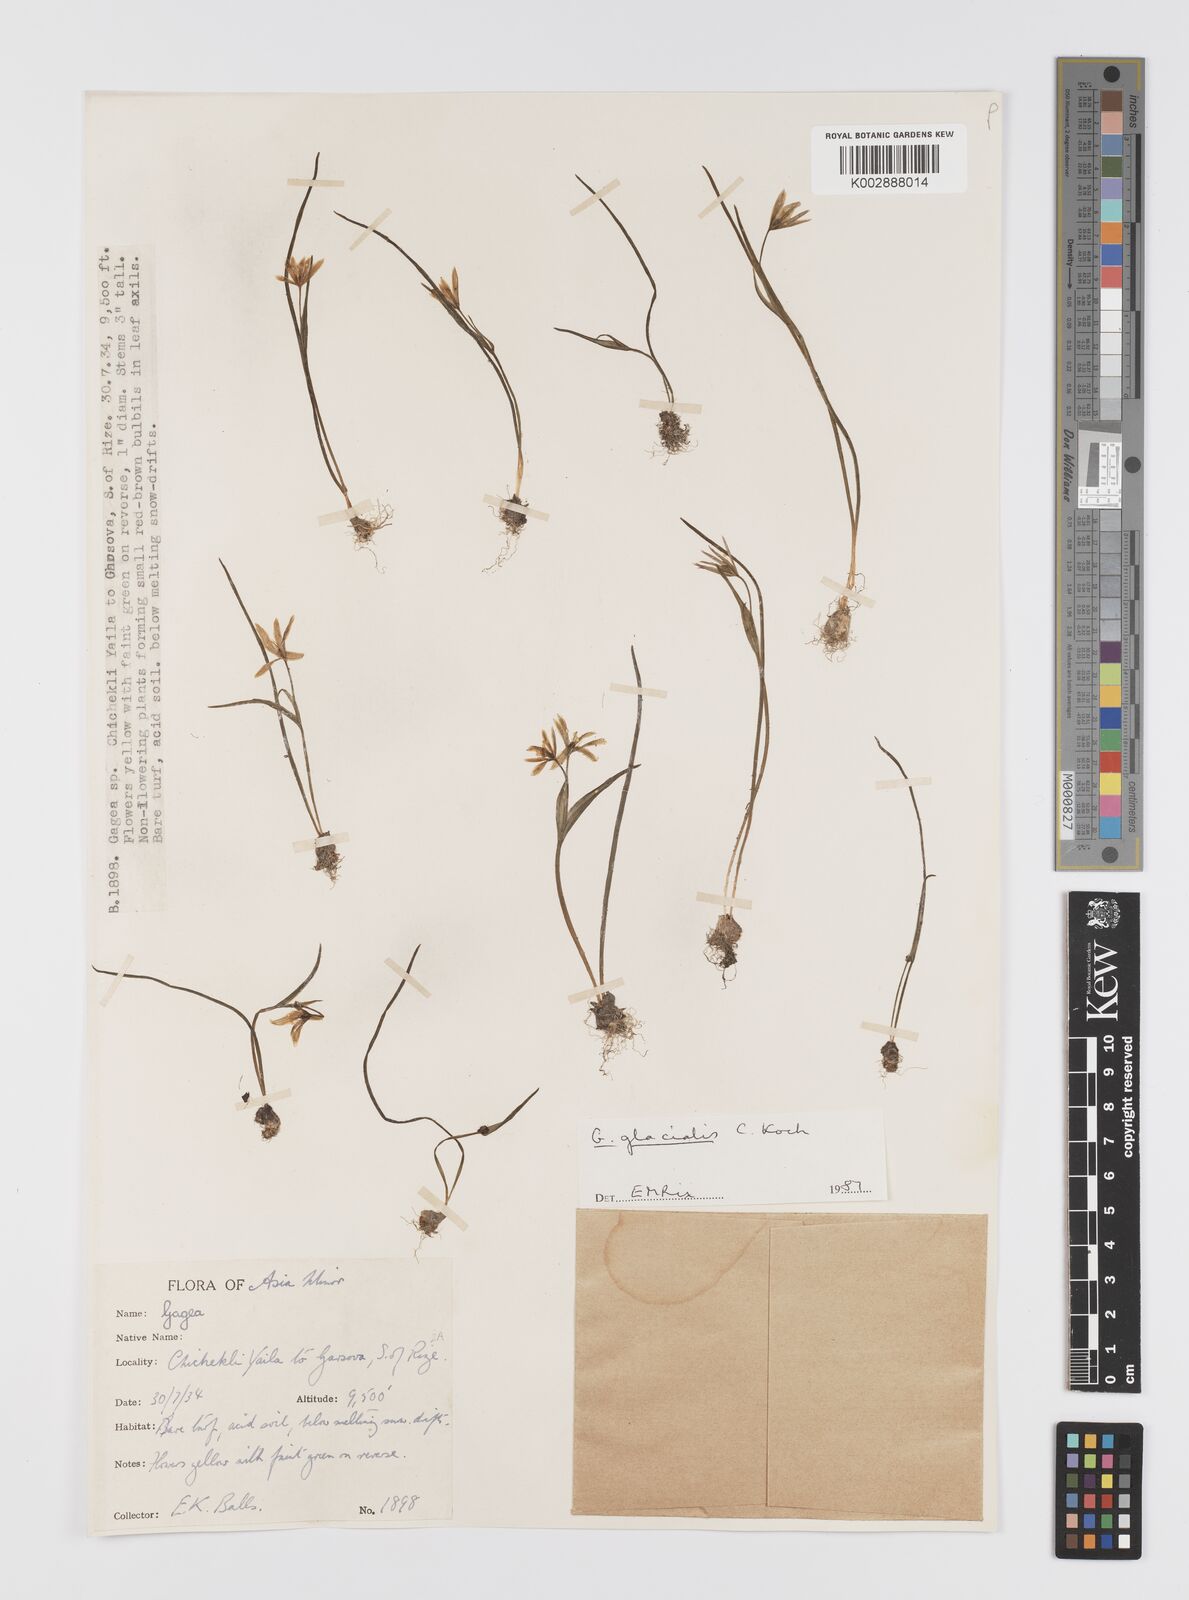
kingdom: Plantae
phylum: Tracheophyta
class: Liliopsida
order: Liliales
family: Liliaceae
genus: Gagea
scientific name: Gagea glacialis
